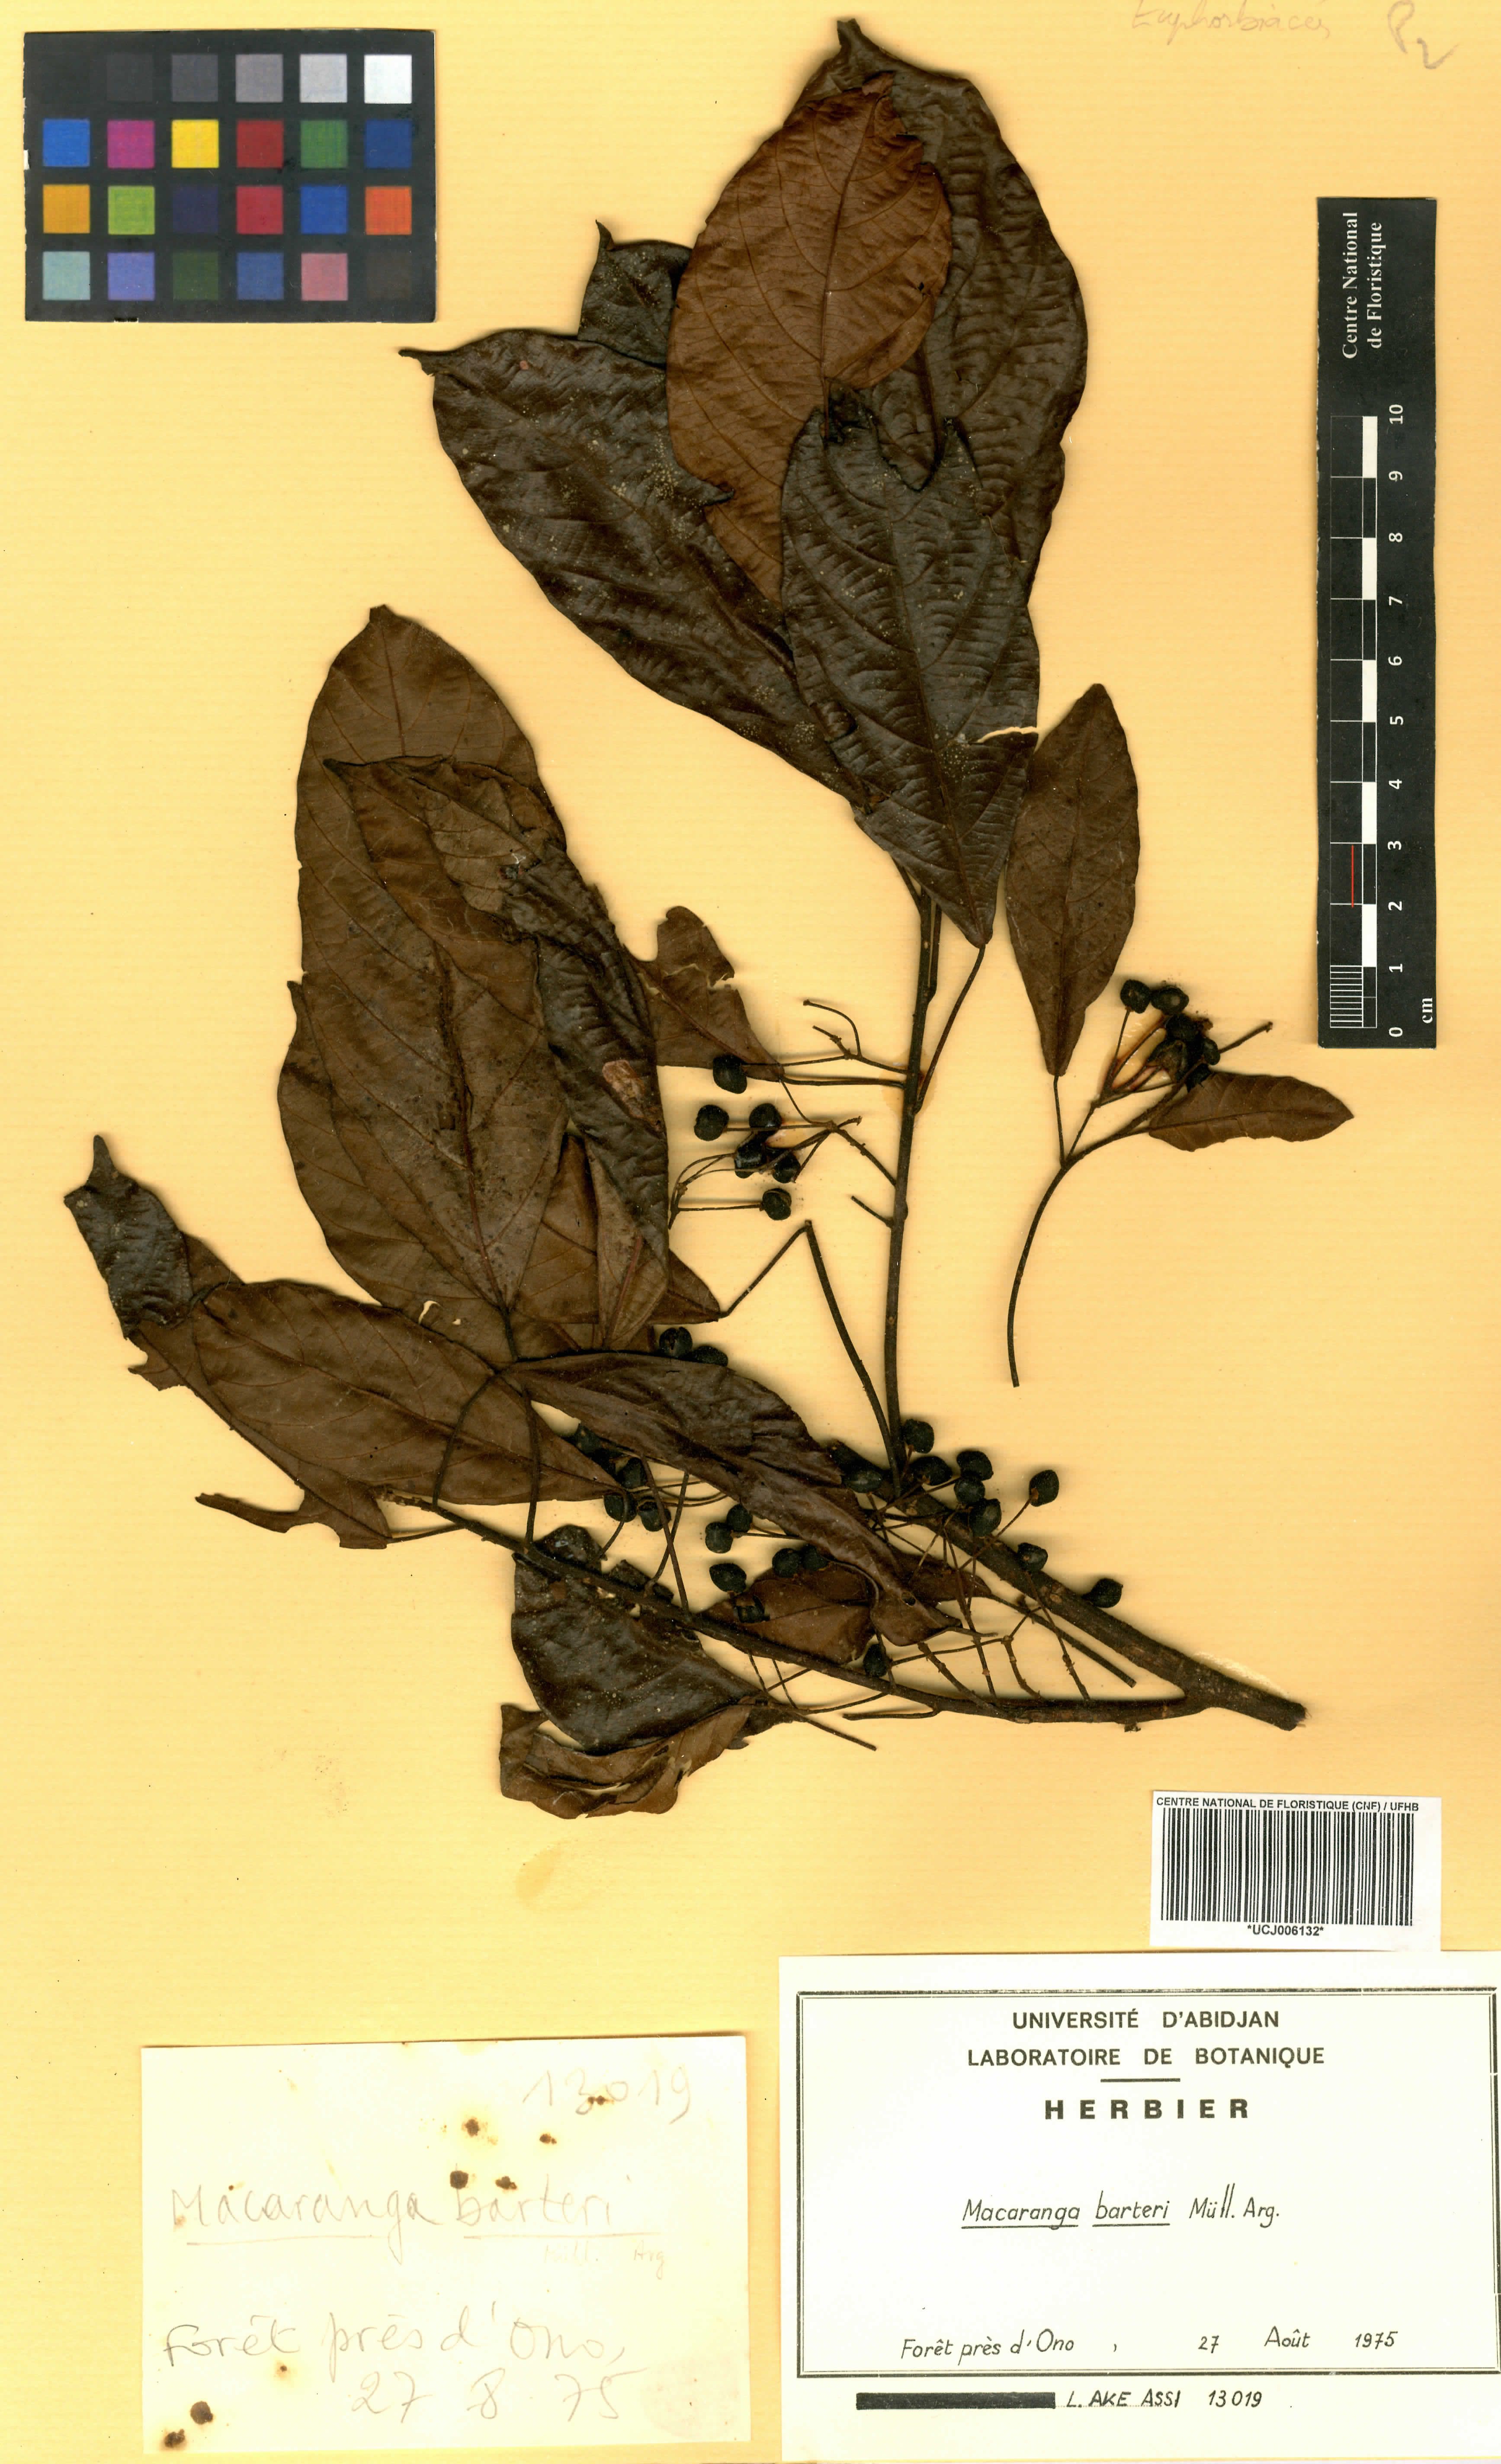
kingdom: Plantae
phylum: Tracheophyta
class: Magnoliopsida
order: Malpighiales
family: Euphorbiaceae
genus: Macaranga
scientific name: Macaranga barteri
